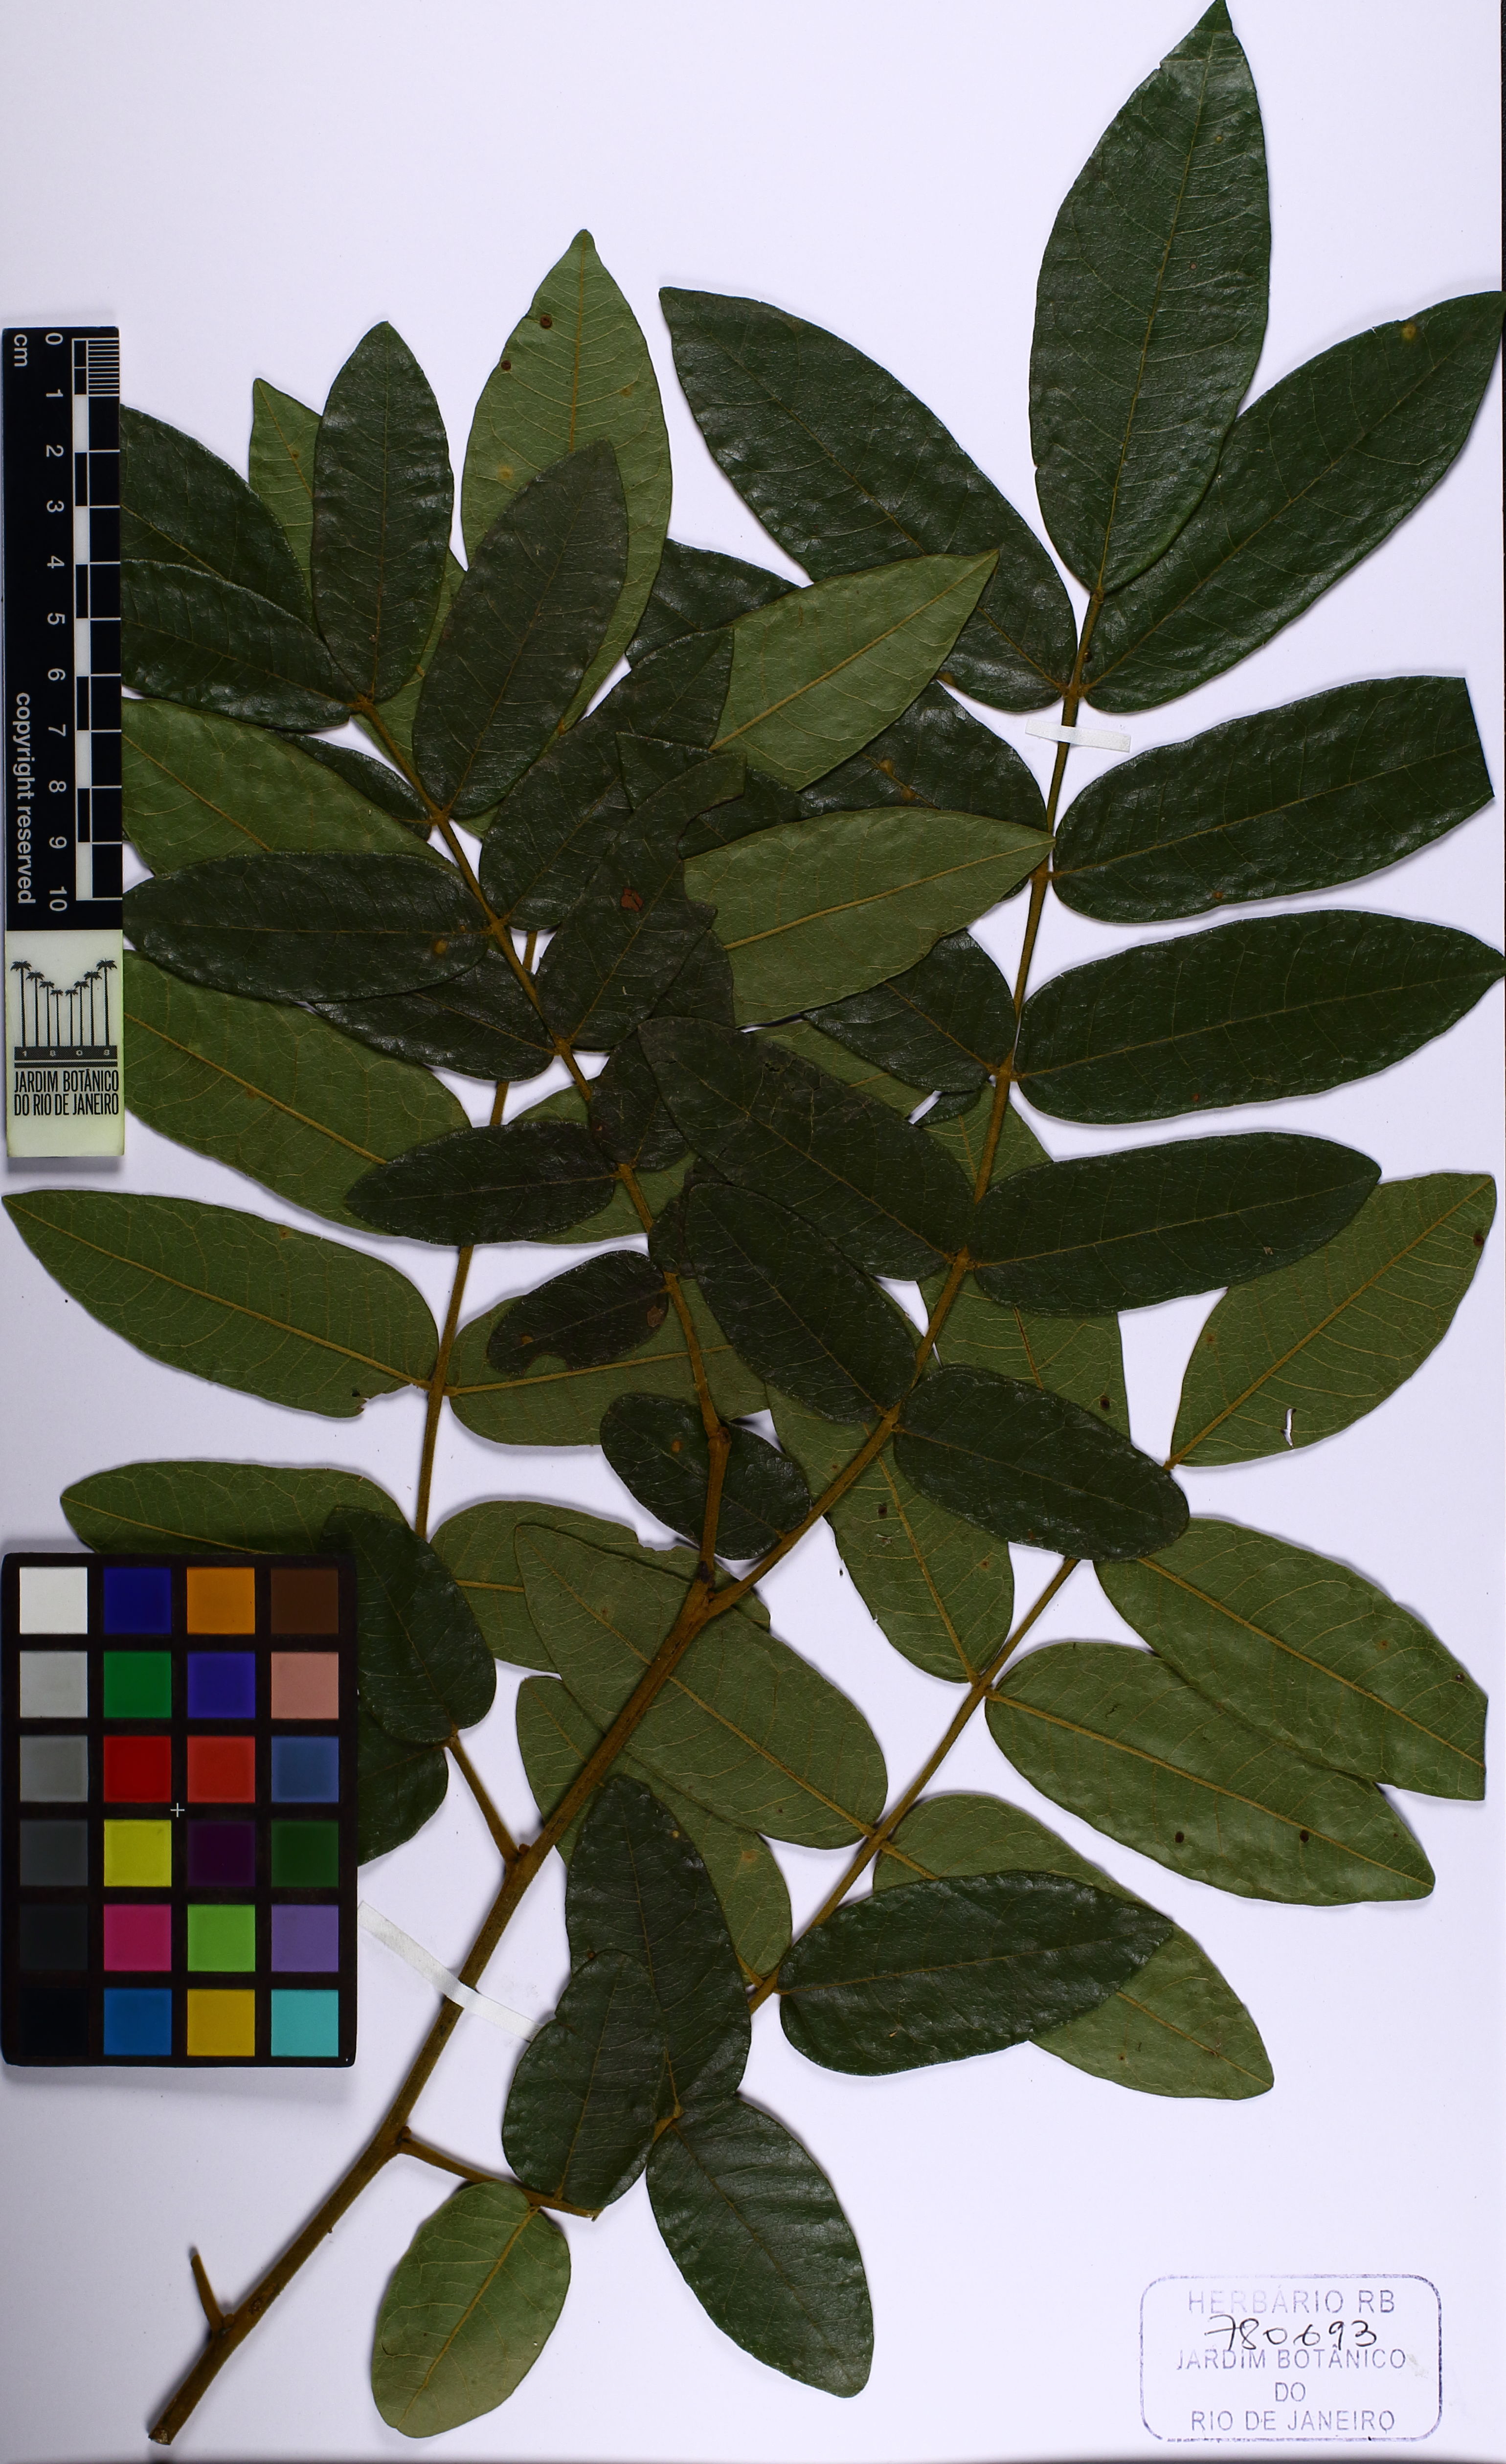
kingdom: Plantae
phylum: Tracheophyta
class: Magnoliopsida
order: Fabales
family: Fabaceae
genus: Swartzia
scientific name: Swartzia
